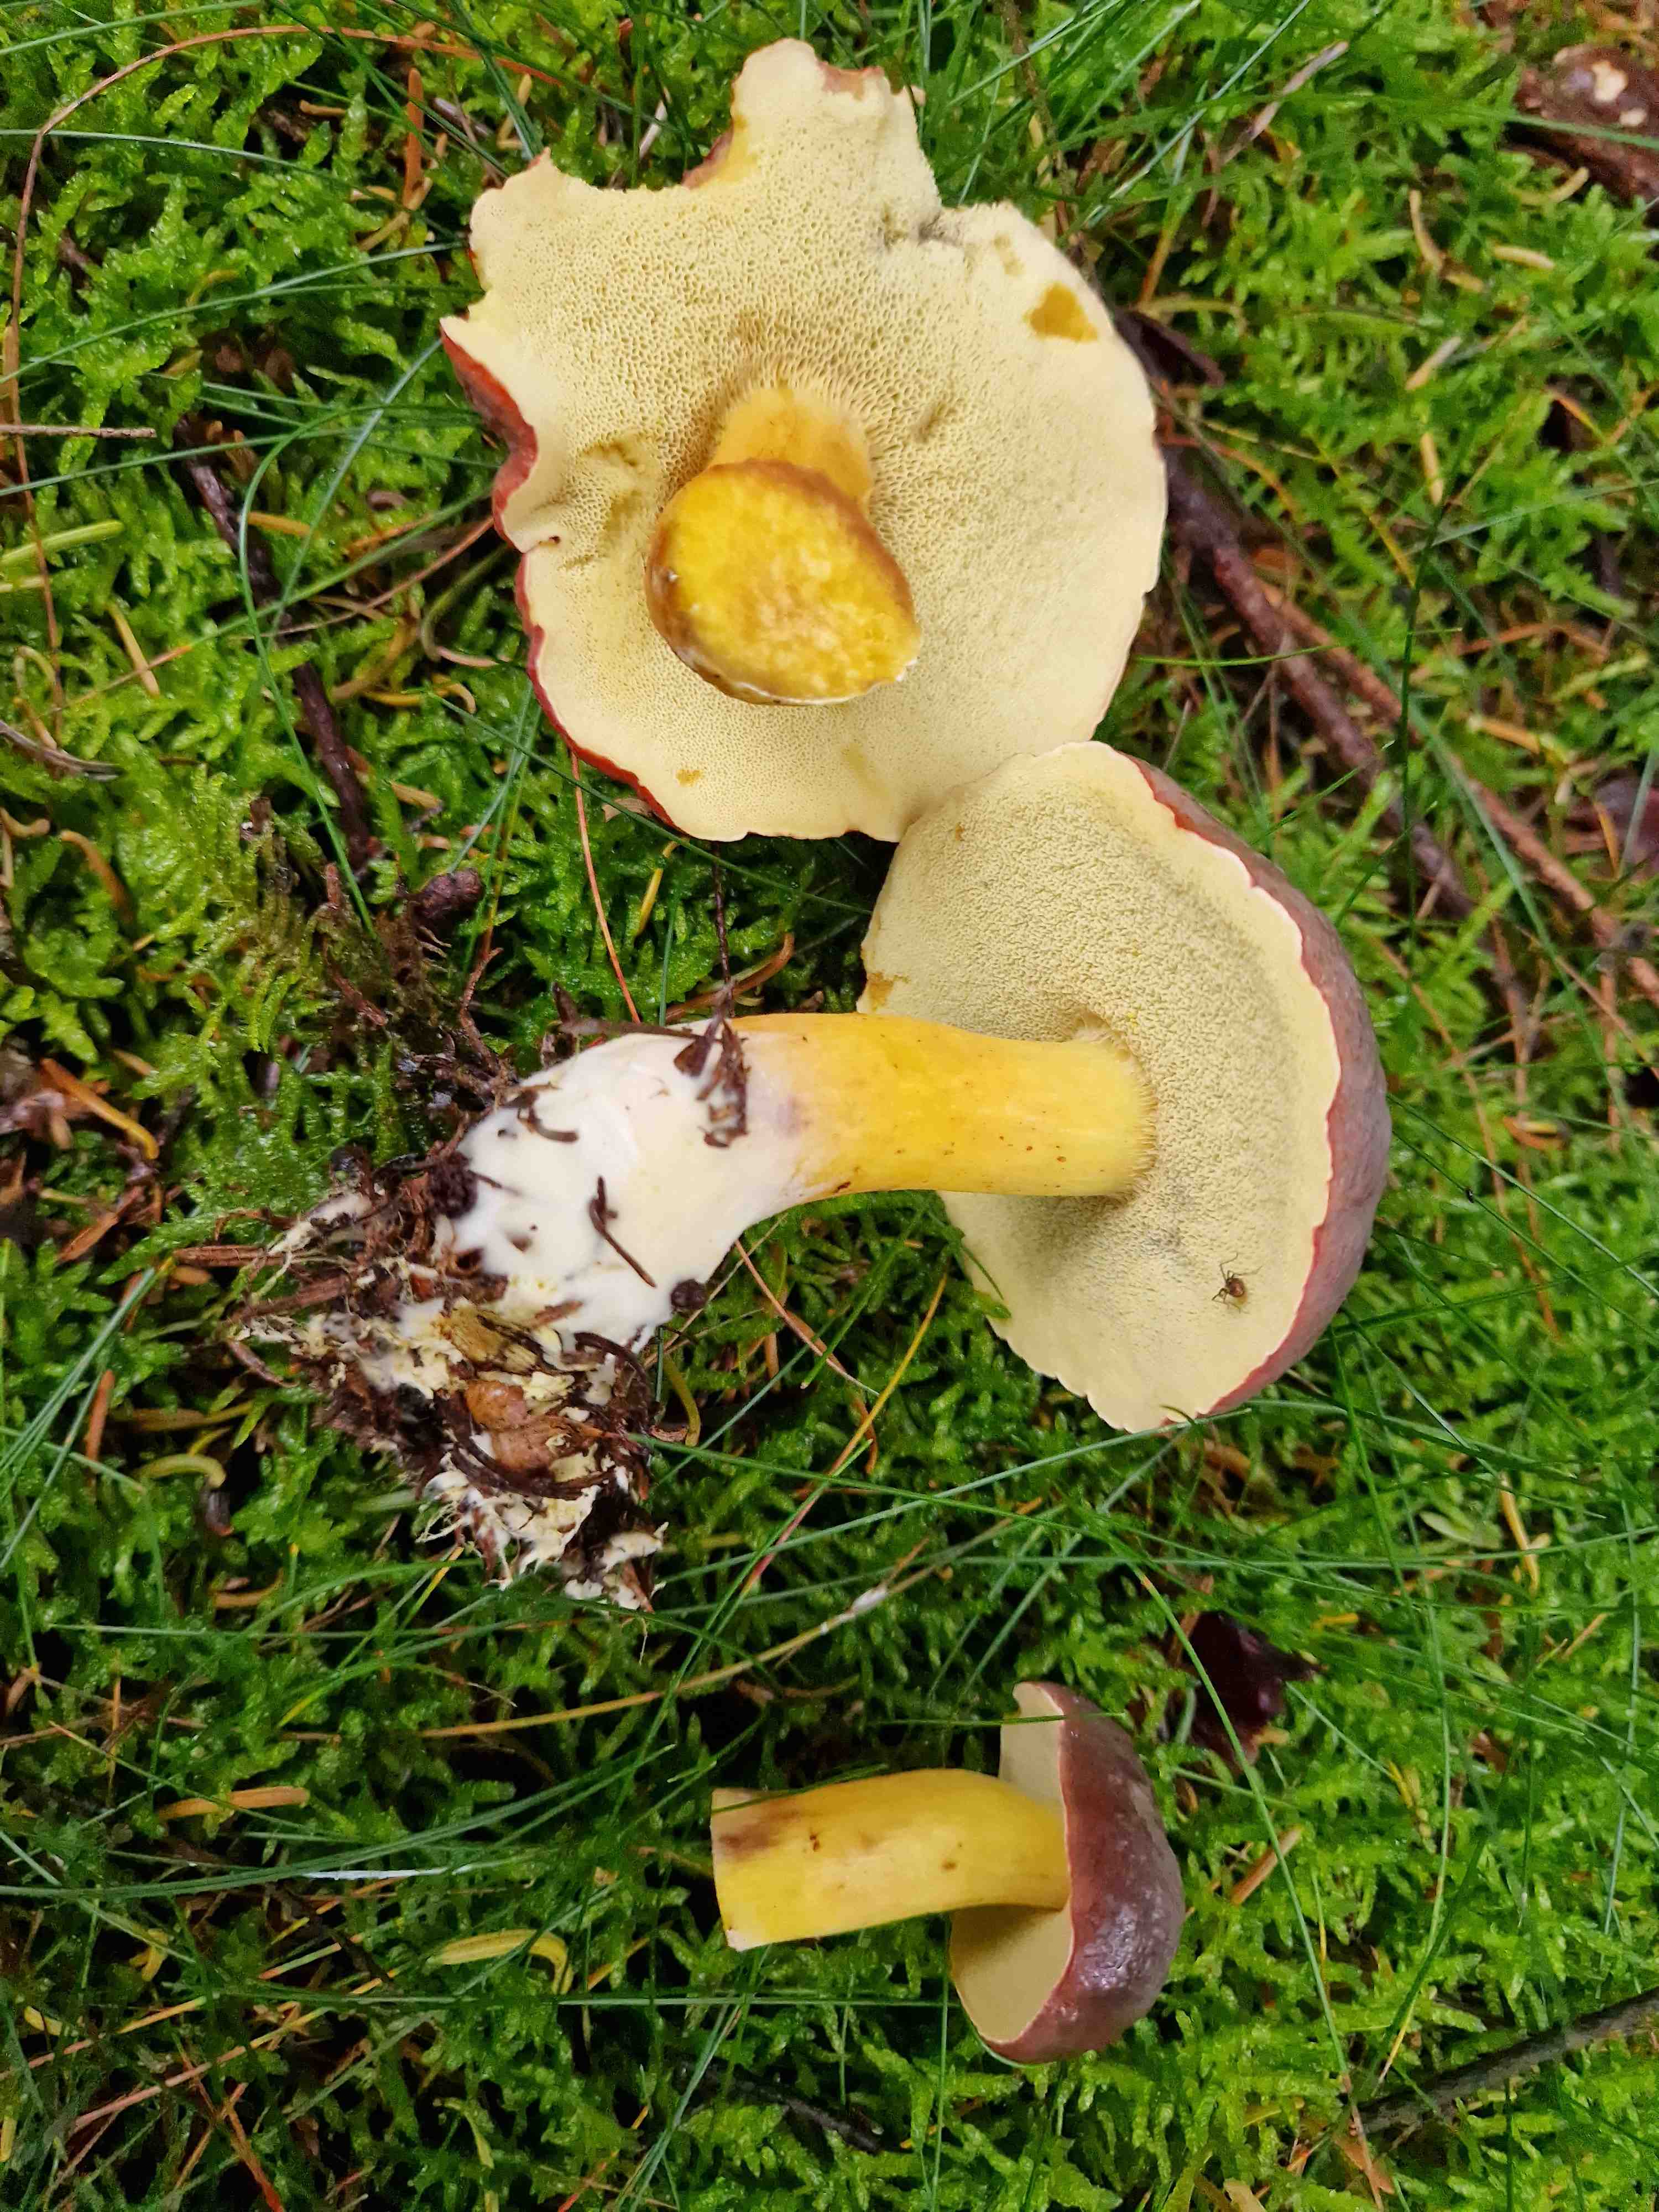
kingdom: Fungi
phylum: Basidiomycota
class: Agaricomycetes
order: Boletales
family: Boletaceae
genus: Xerocomellus
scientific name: Xerocomellus pruinatus
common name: dugget rørhat
